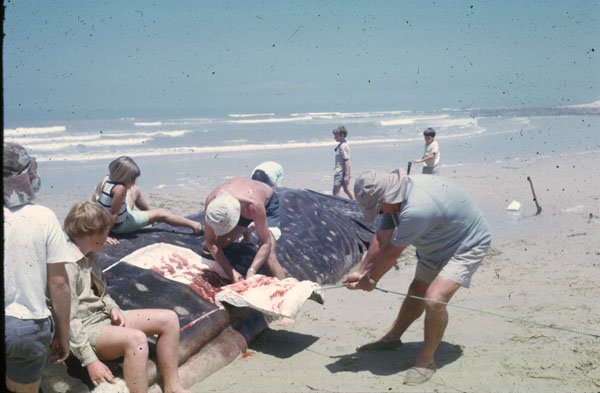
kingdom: Animalia
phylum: Chordata
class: Elasmobranchii
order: Orectolobiformes
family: Rhincodontidae
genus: Rhincodon
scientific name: Rhincodon typus
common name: Whale shark
